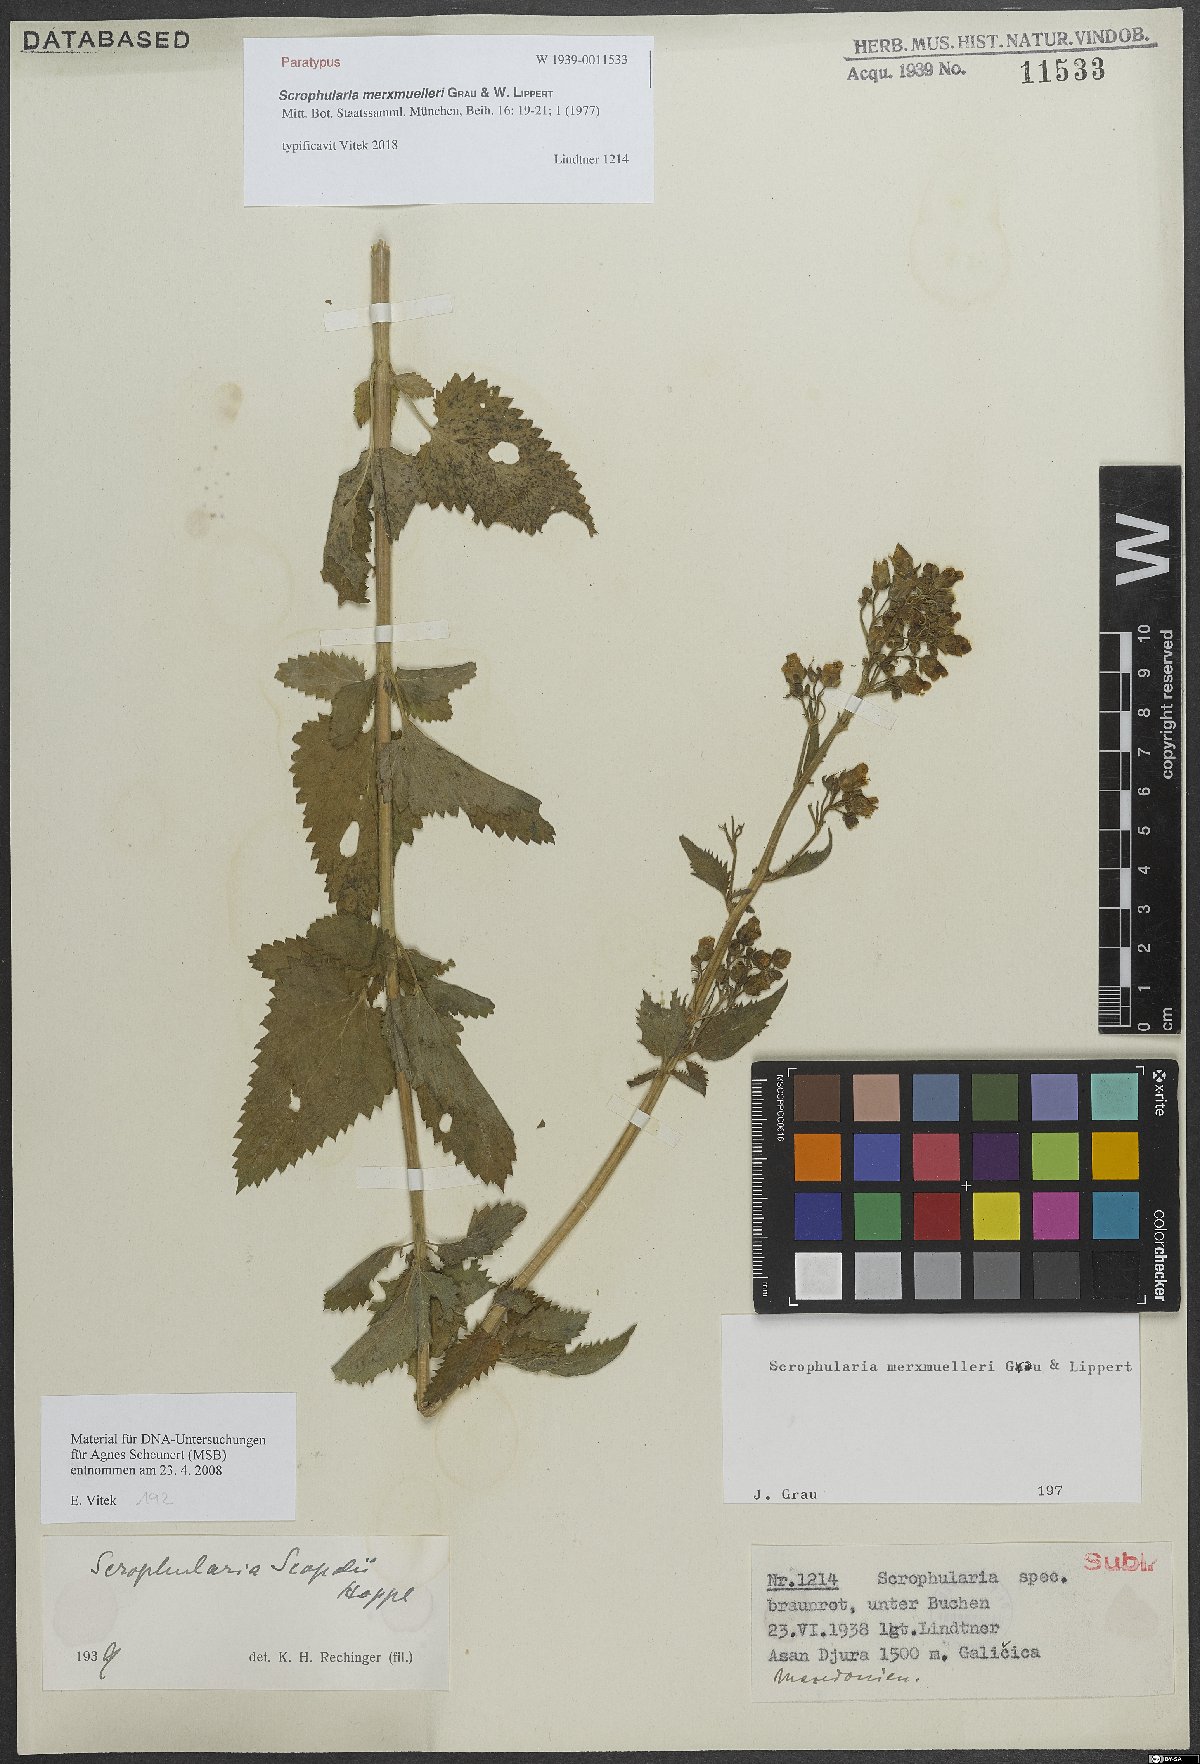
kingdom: Plantae
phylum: Tracheophyta
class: Magnoliopsida
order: Lamiales
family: Scrophulariaceae
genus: Scrophularia
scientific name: Scrophularia scopolii
